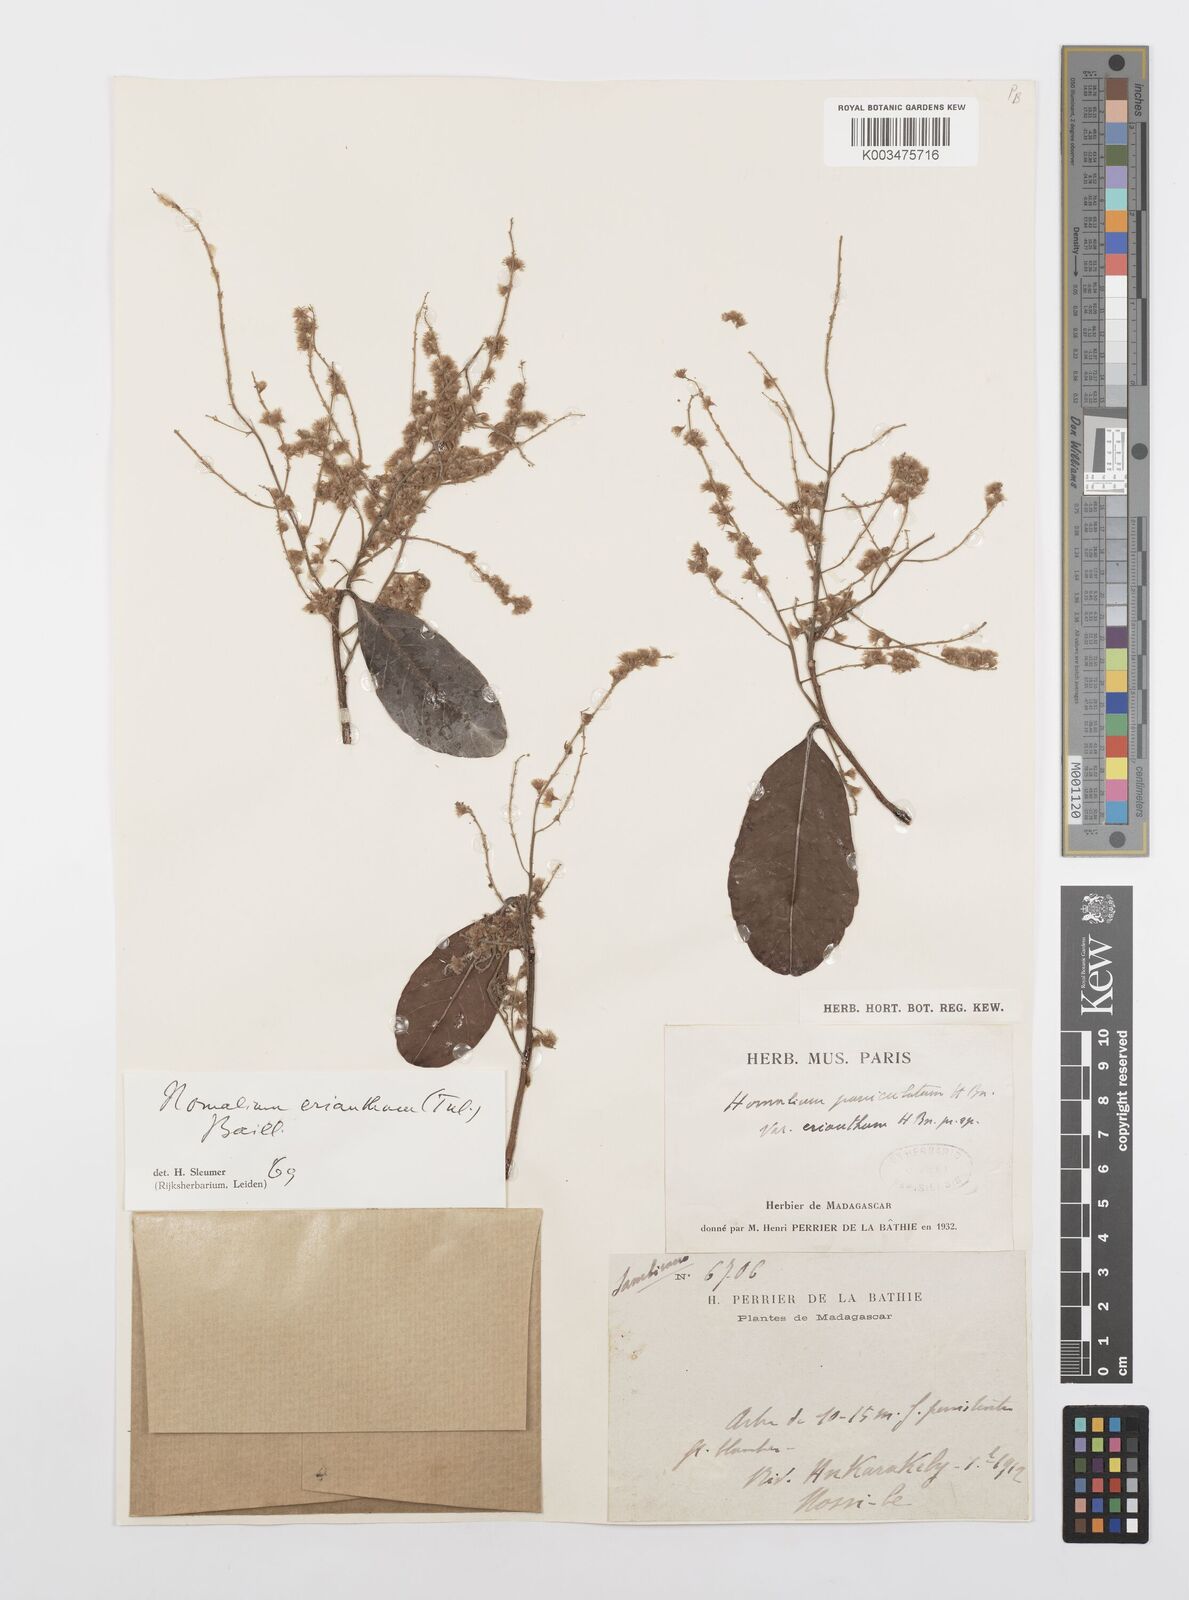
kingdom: Plantae
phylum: Tracheophyta
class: Magnoliopsida
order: Malpighiales
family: Salicaceae
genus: Homalium
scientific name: Homalium erianthum
